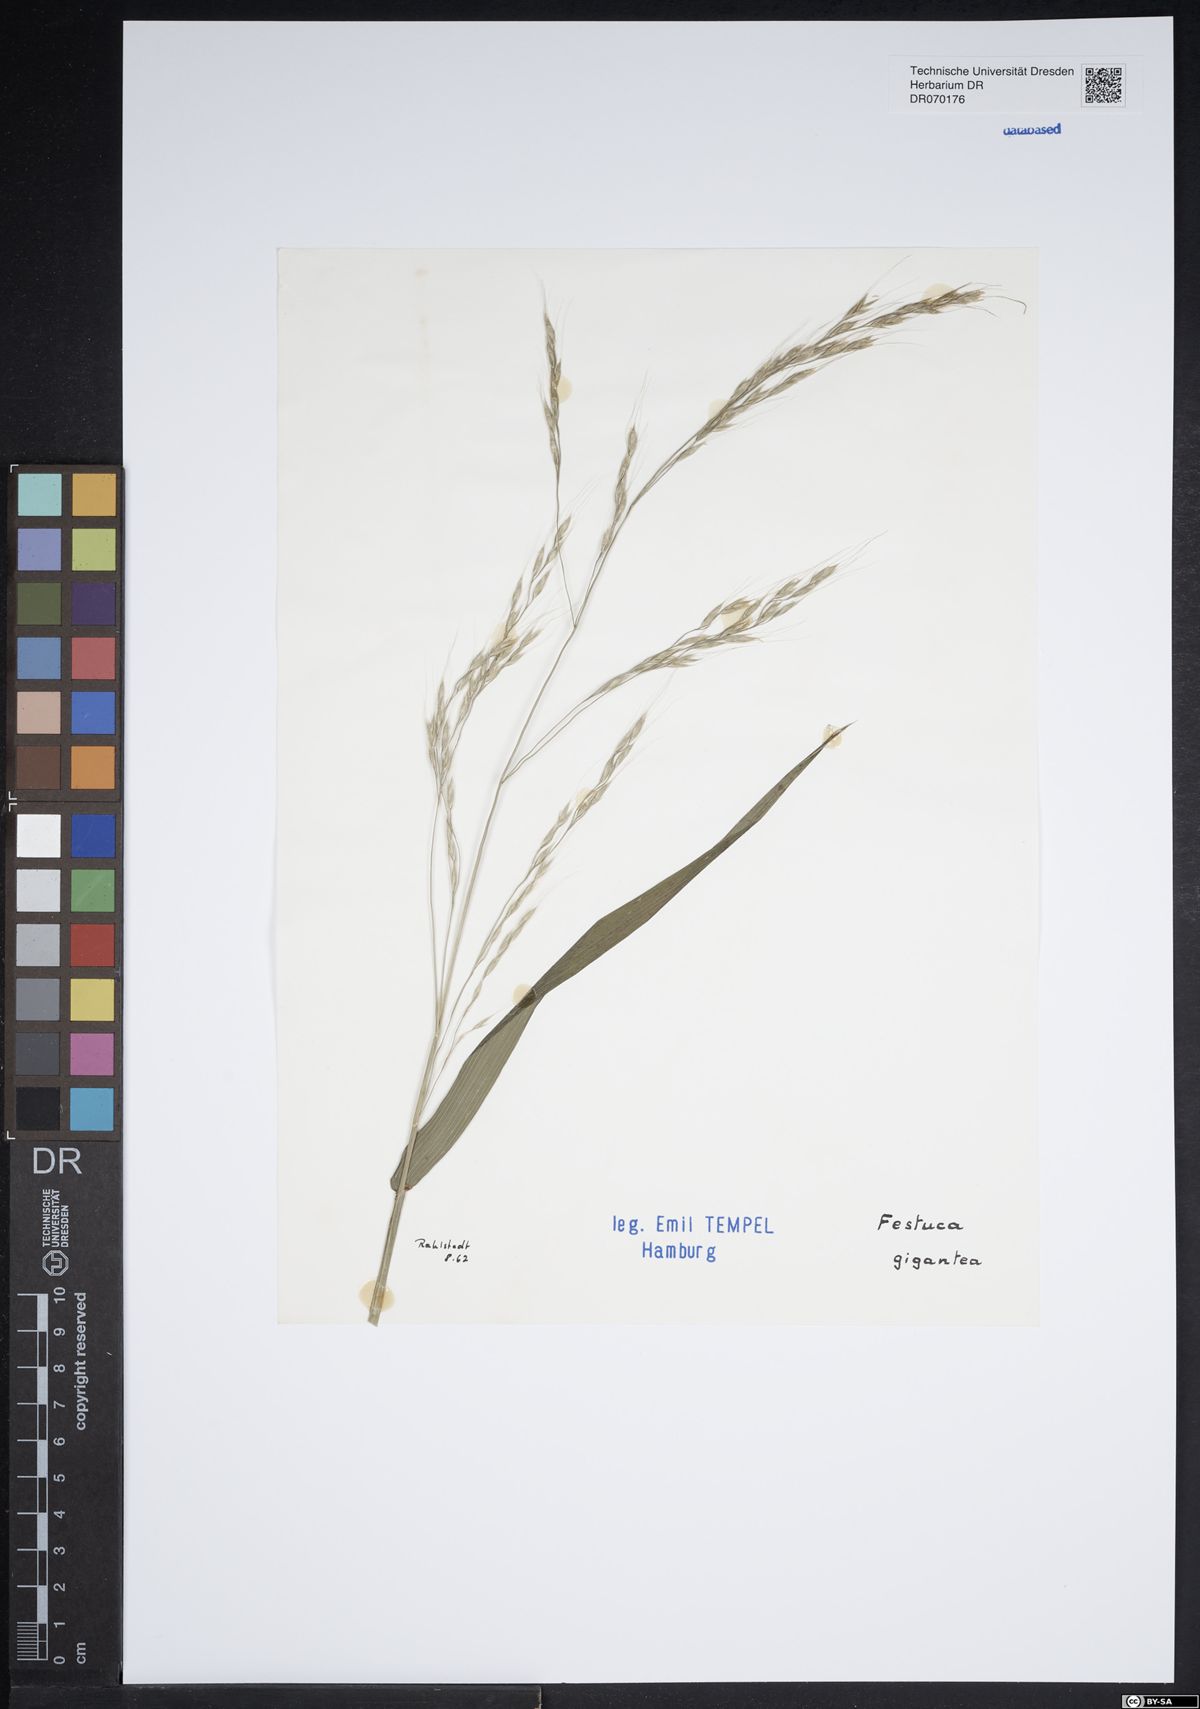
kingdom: Plantae
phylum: Tracheophyta
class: Liliopsida
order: Poales
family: Poaceae
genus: Lolium
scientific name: Lolium giganteum
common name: Giant fescue
